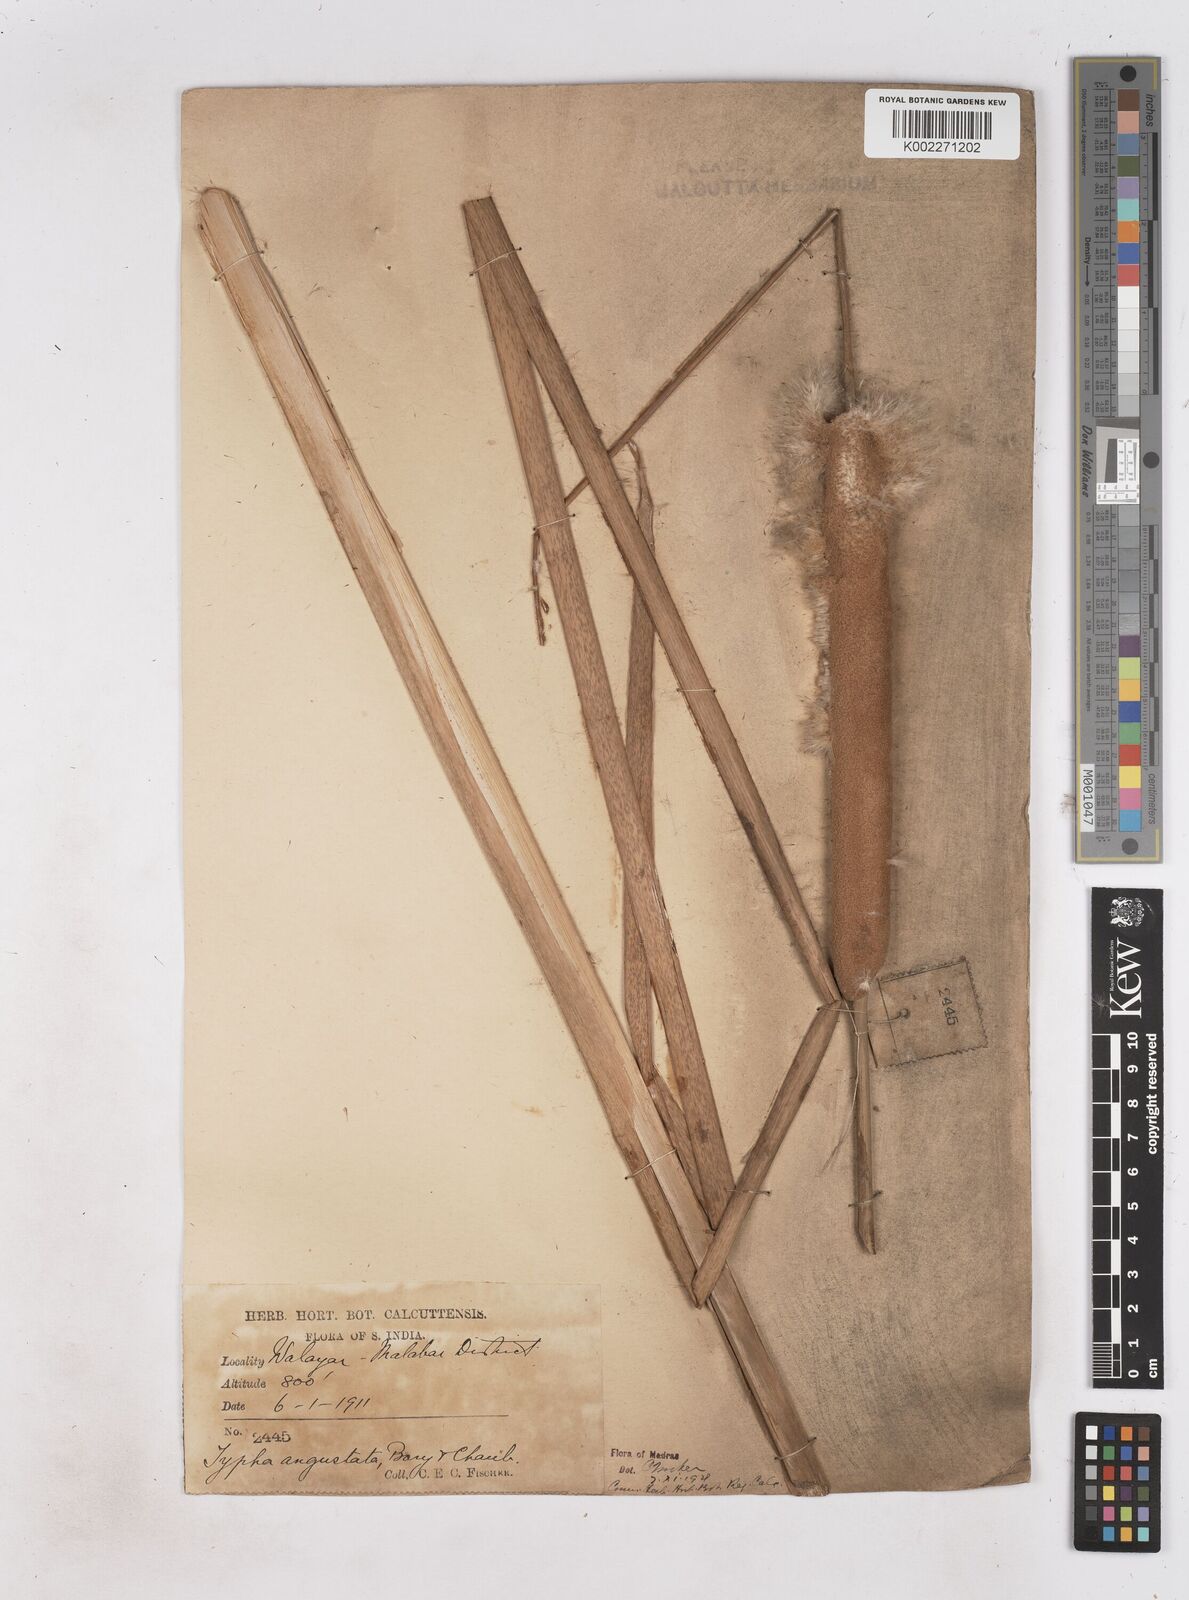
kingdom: Plantae
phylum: Tracheophyta
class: Liliopsida
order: Poales
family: Typhaceae
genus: Typha
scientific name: Typha domingensis
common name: Southern cattail
